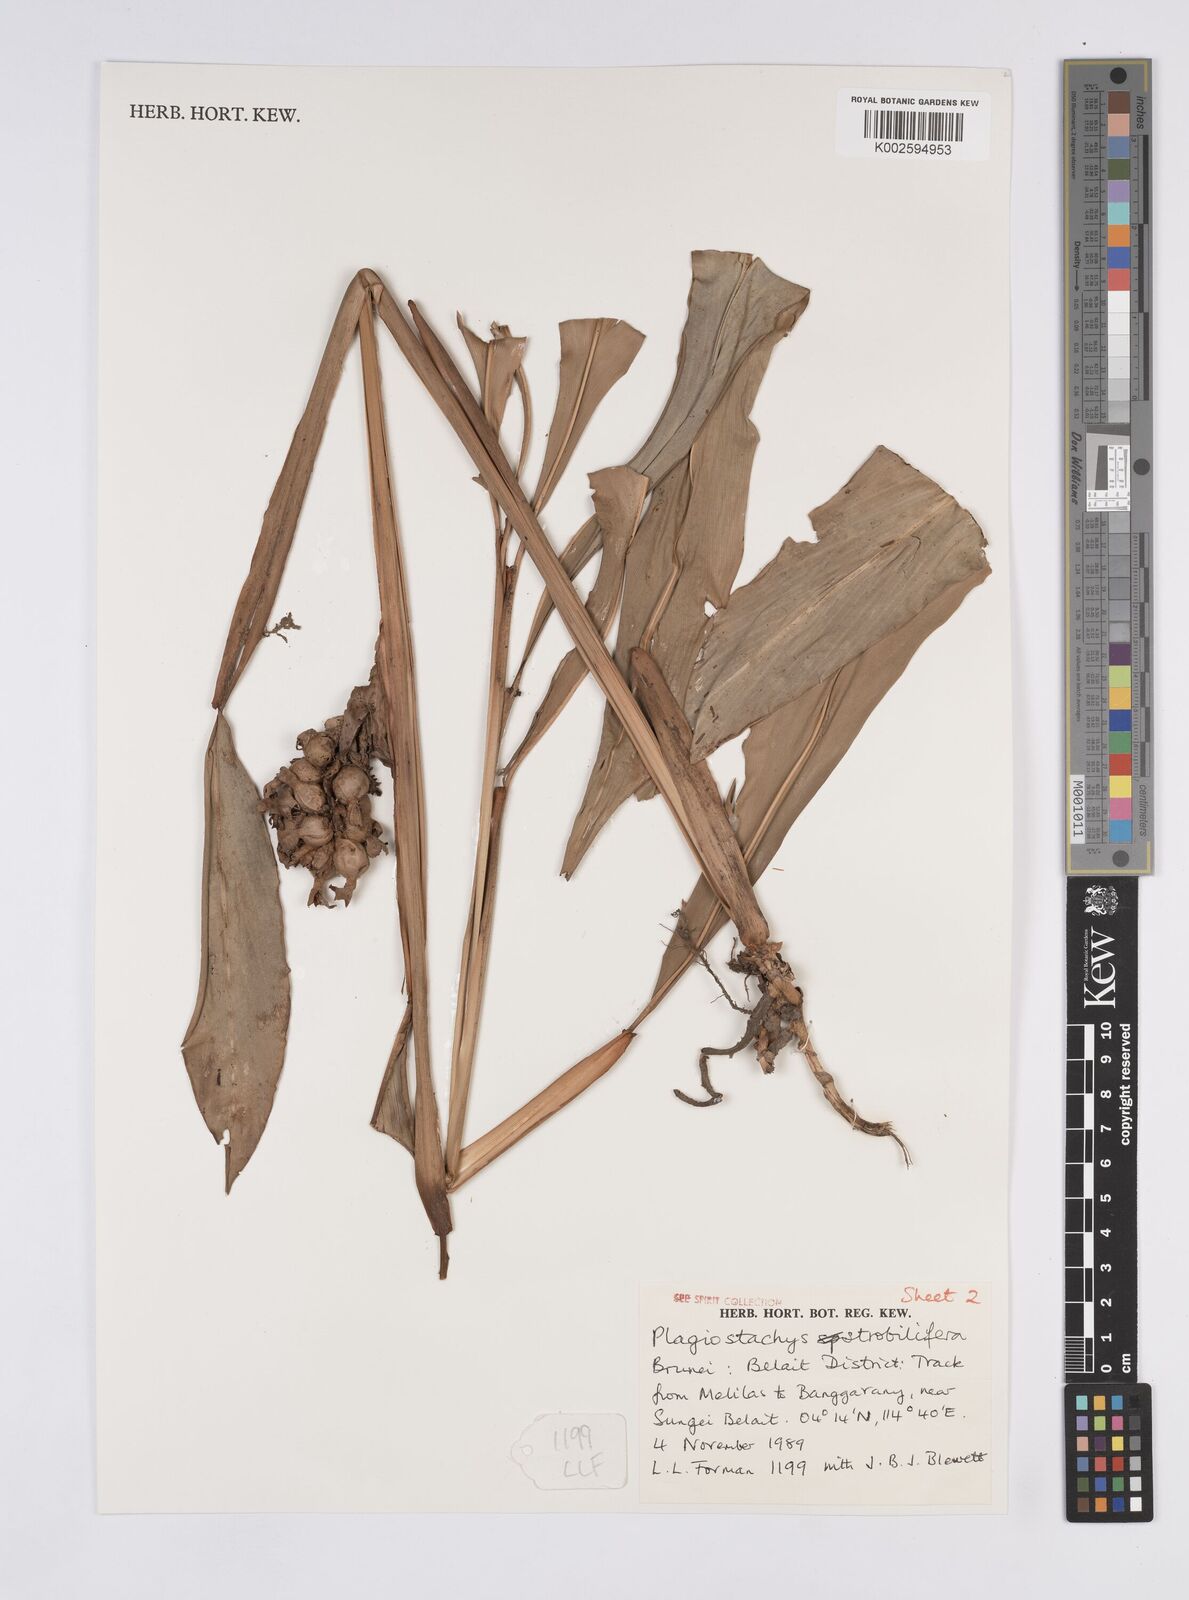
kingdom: Plantae
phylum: Tracheophyta
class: Liliopsida
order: Zingiberales
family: Zingiberaceae
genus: Plagiostachys
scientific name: Plagiostachys strobilifera
